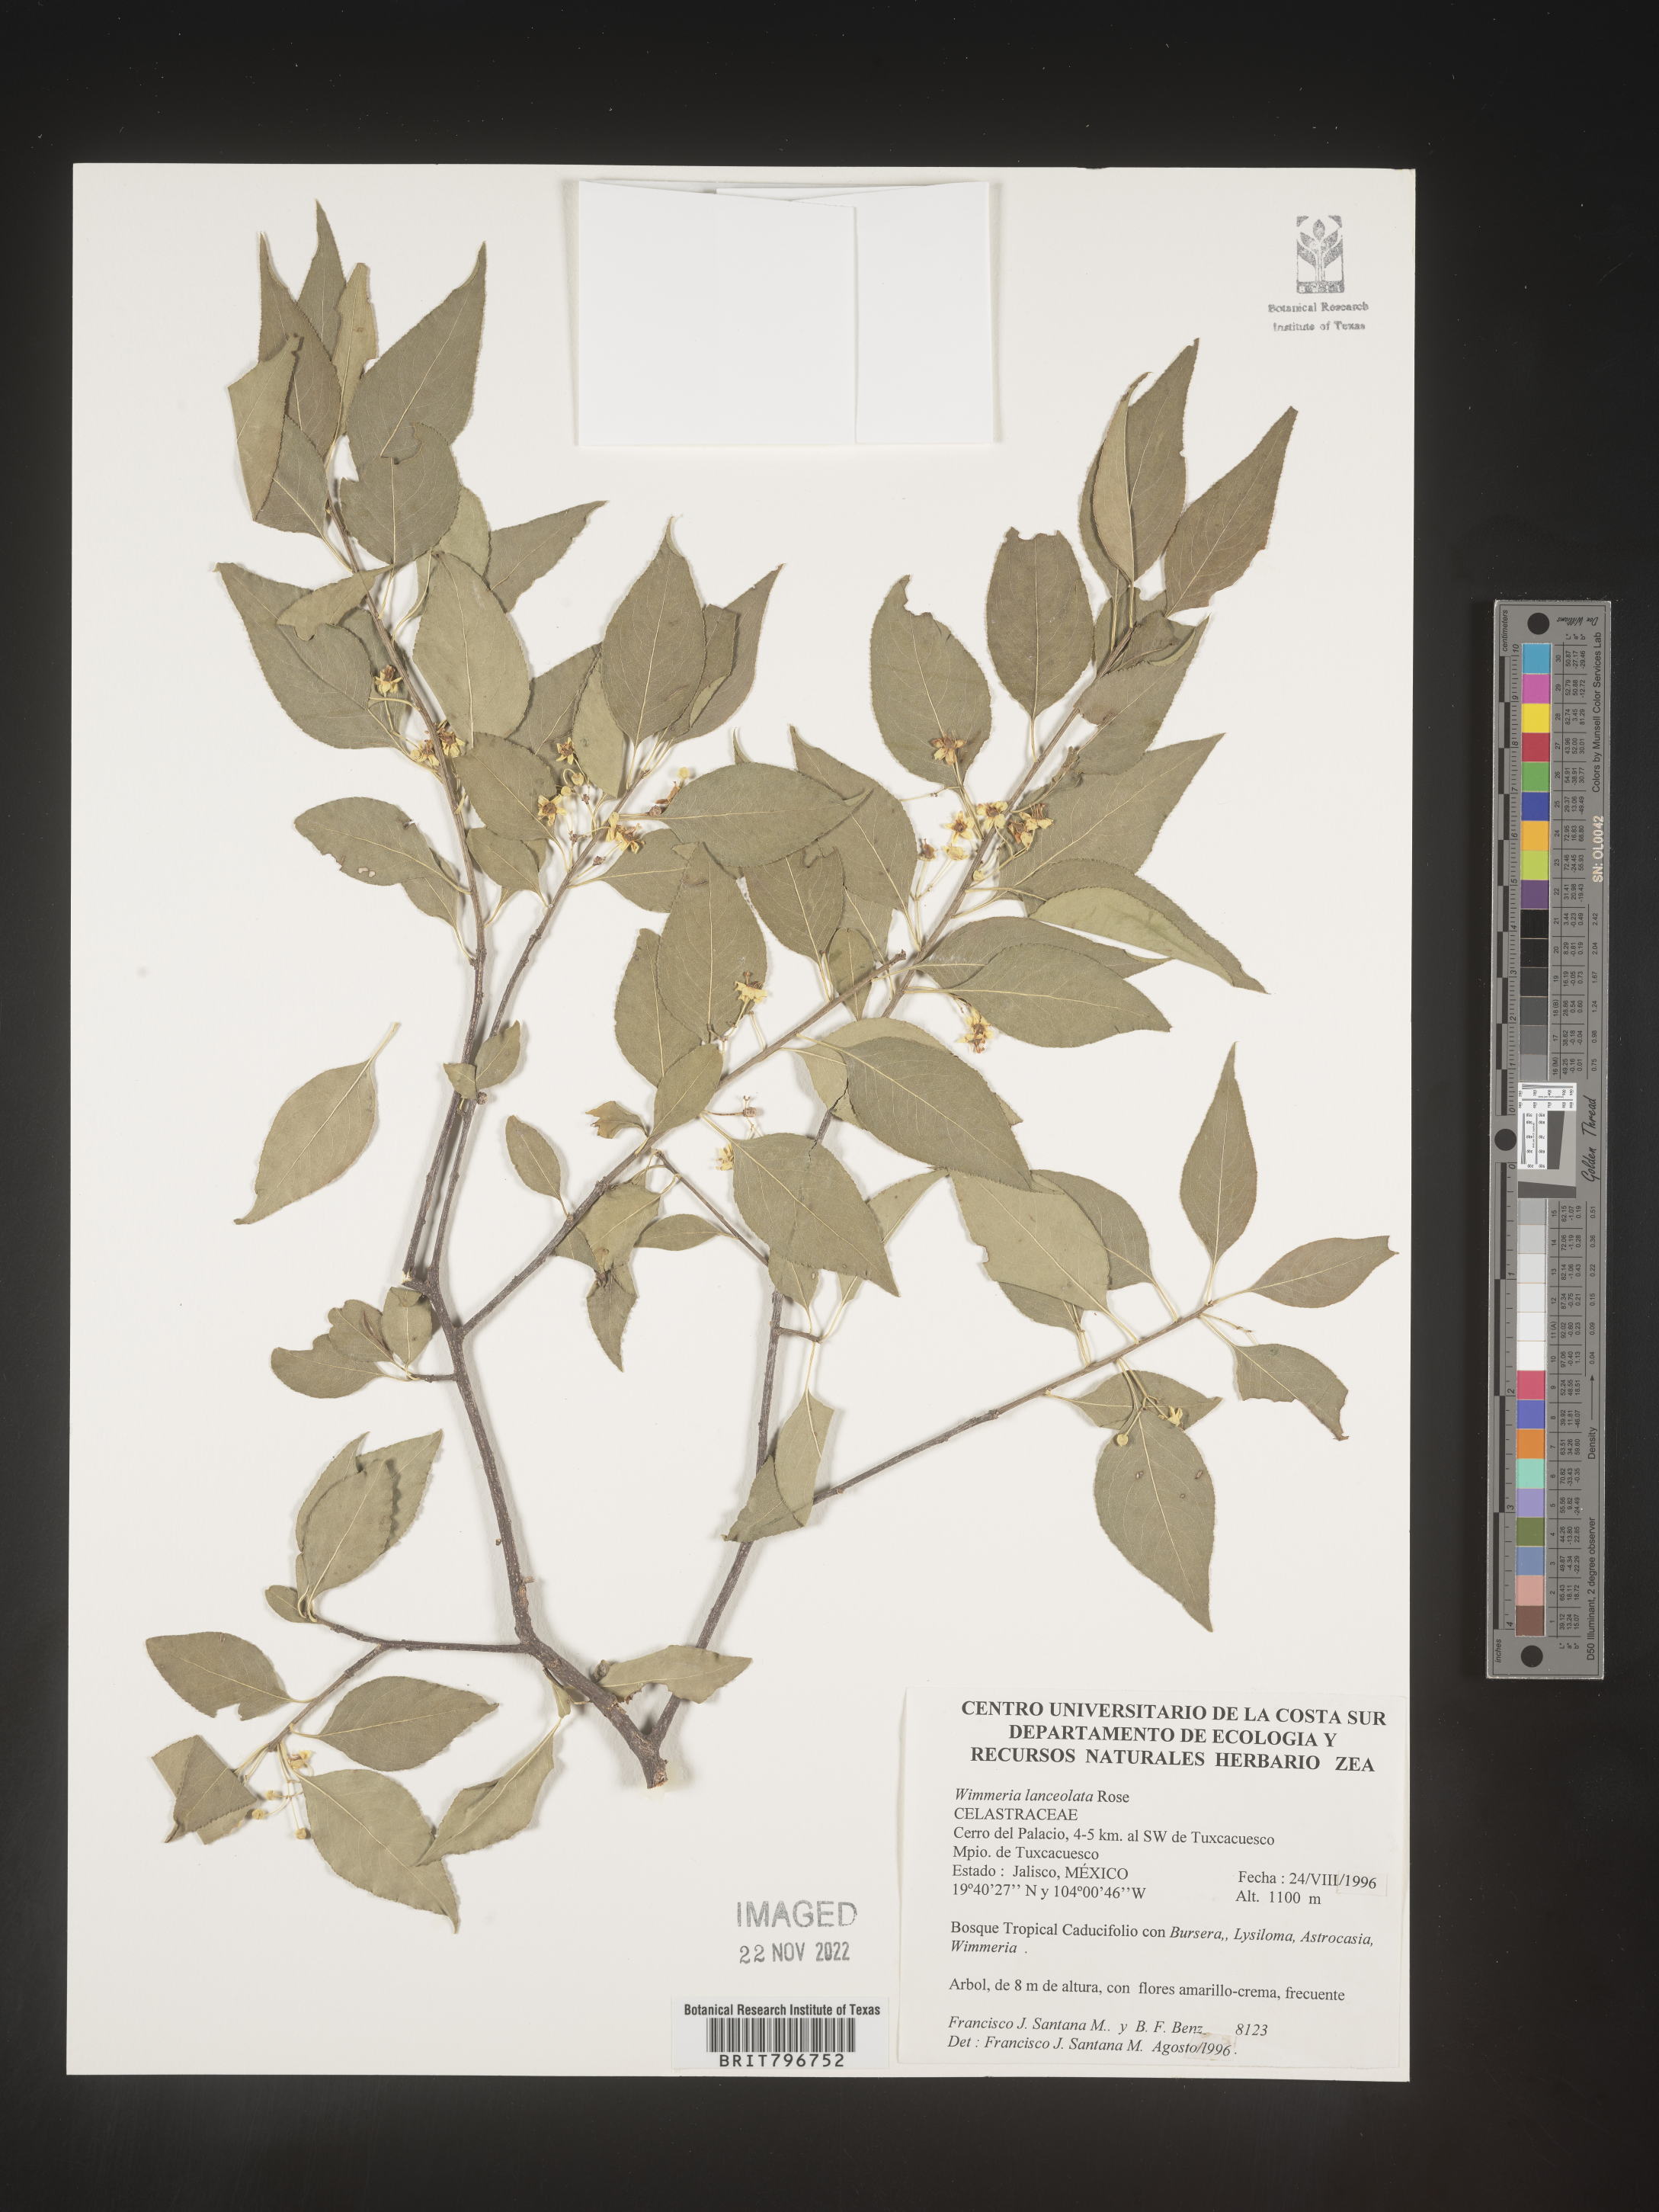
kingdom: Plantae
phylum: Tracheophyta
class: Magnoliopsida
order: Celastrales
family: Celastraceae
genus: Wimmeria
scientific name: Wimmeria
